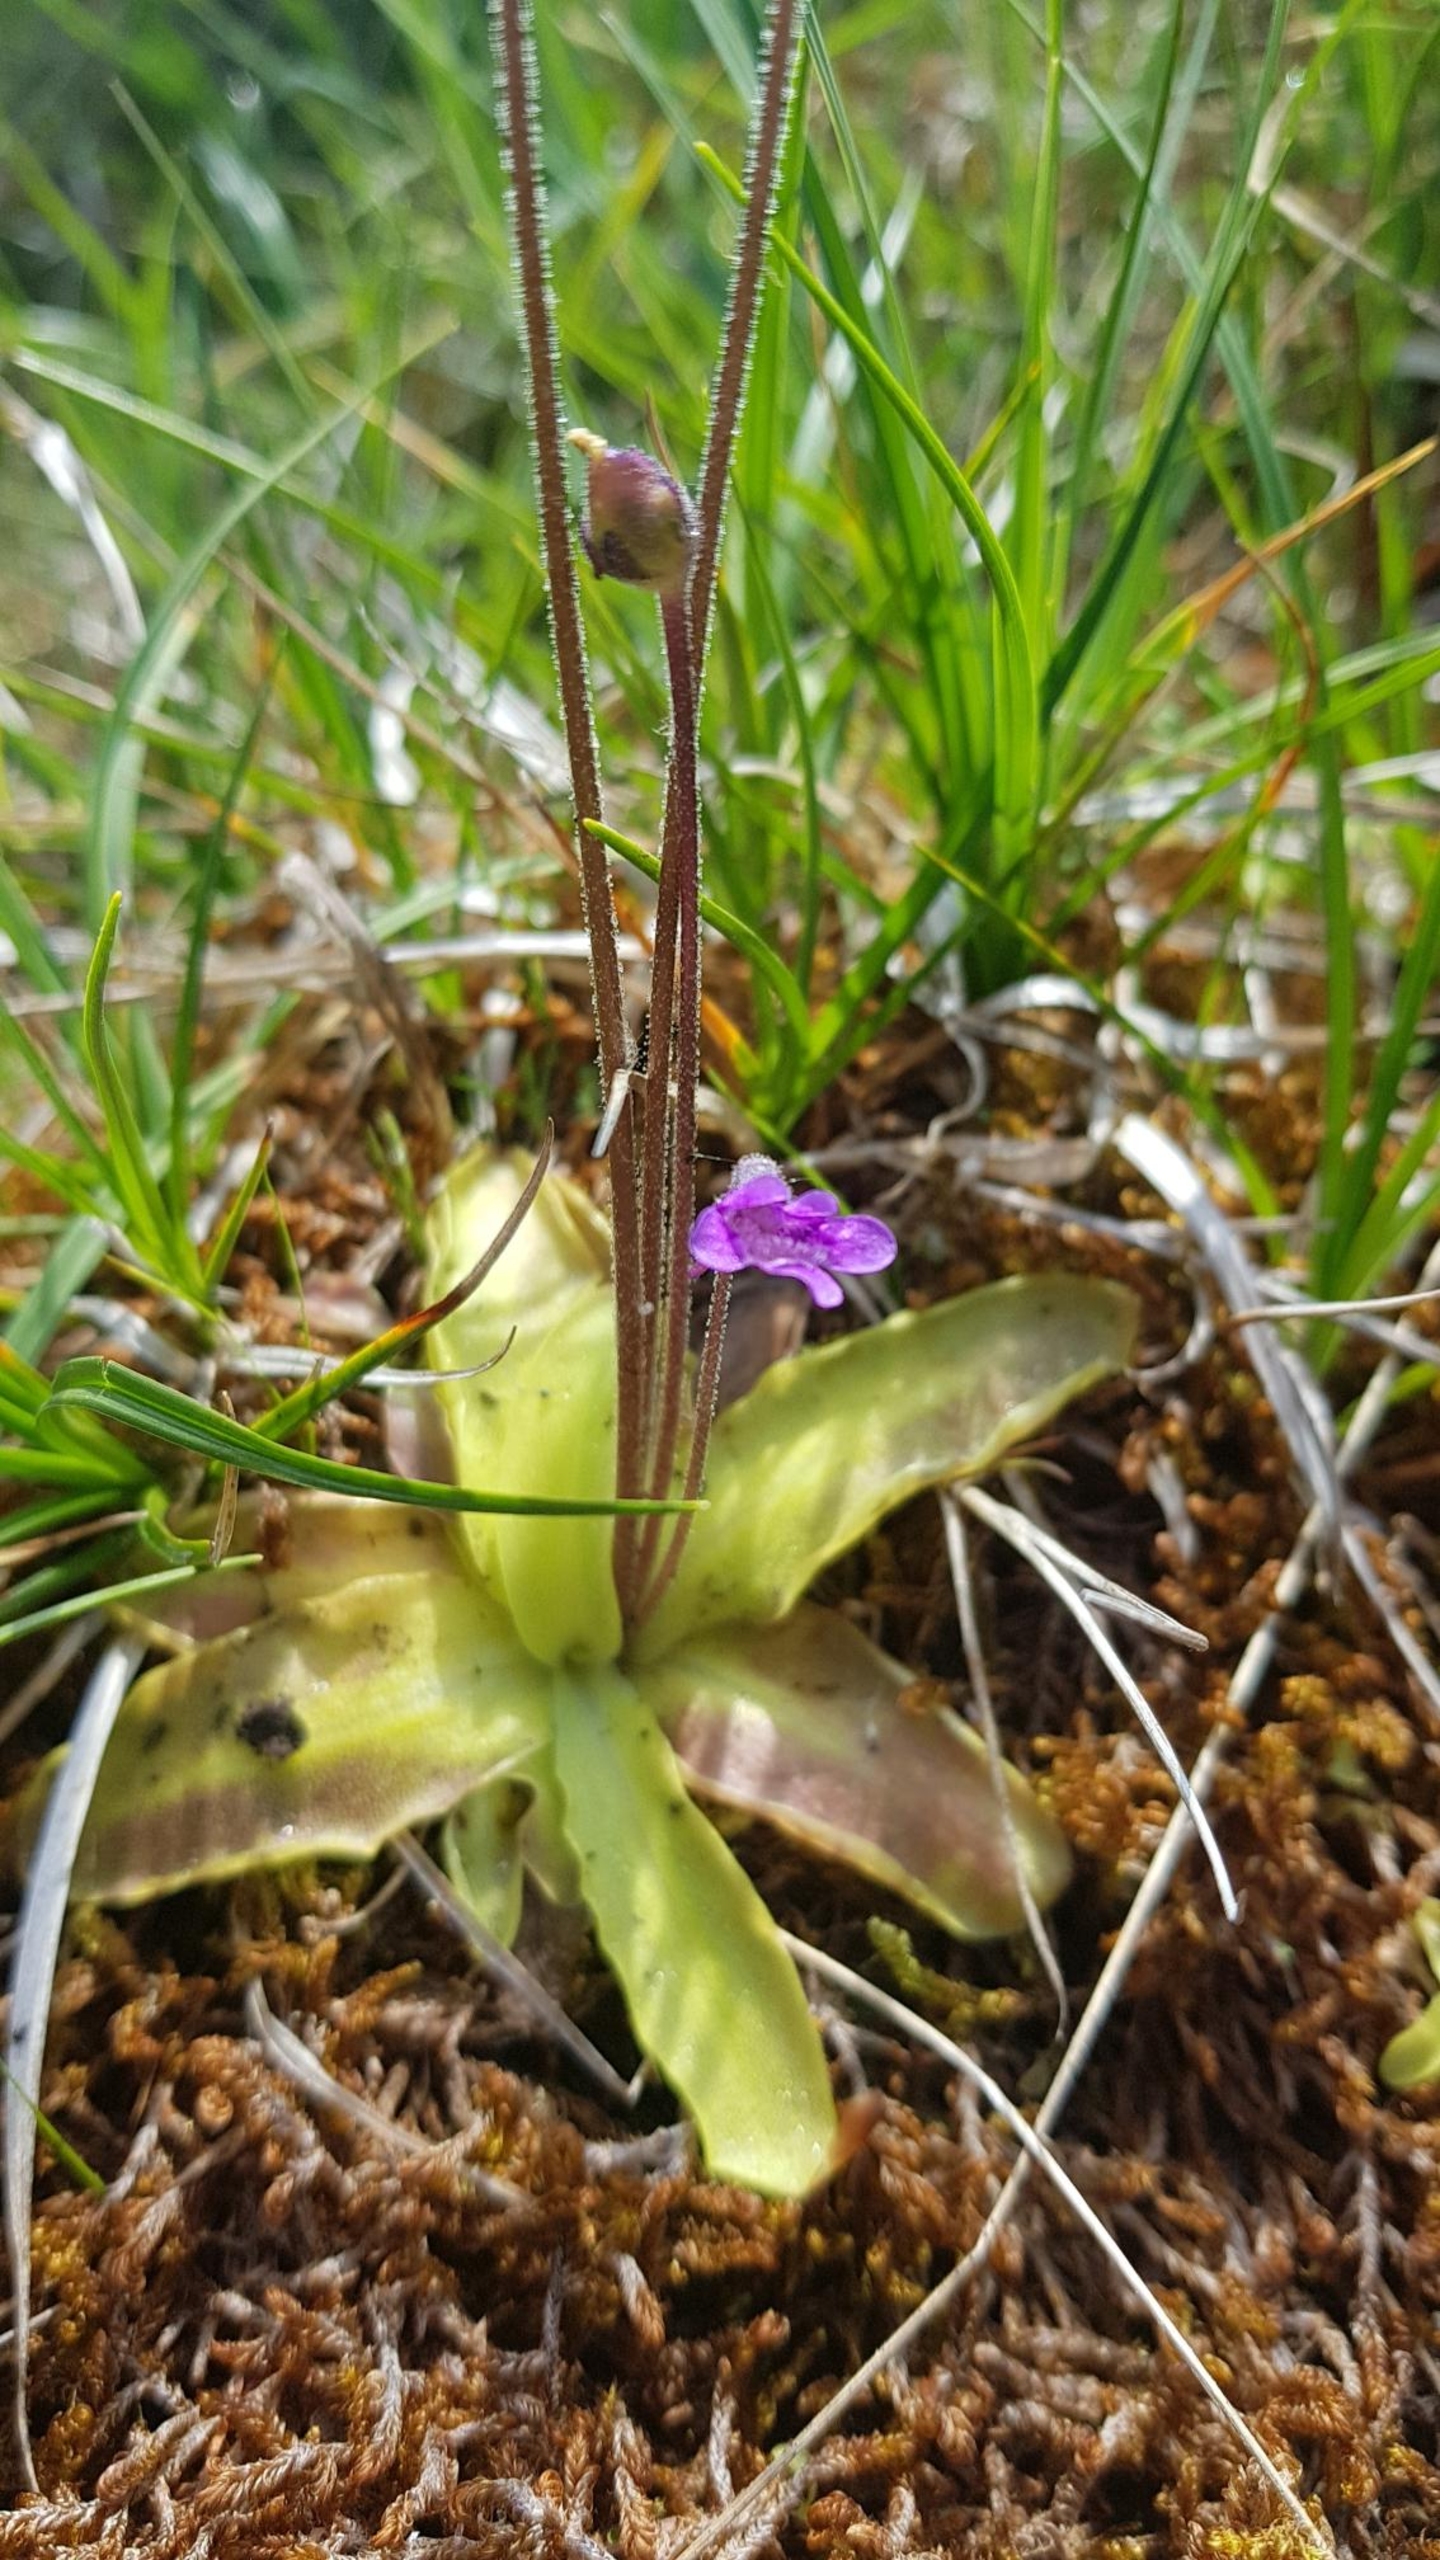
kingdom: Plantae
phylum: Tracheophyta
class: Magnoliopsida
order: Lamiales
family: Lentibulariaceae
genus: Pinguicula
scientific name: Pinguicula vulgaris
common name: Vibefedt
